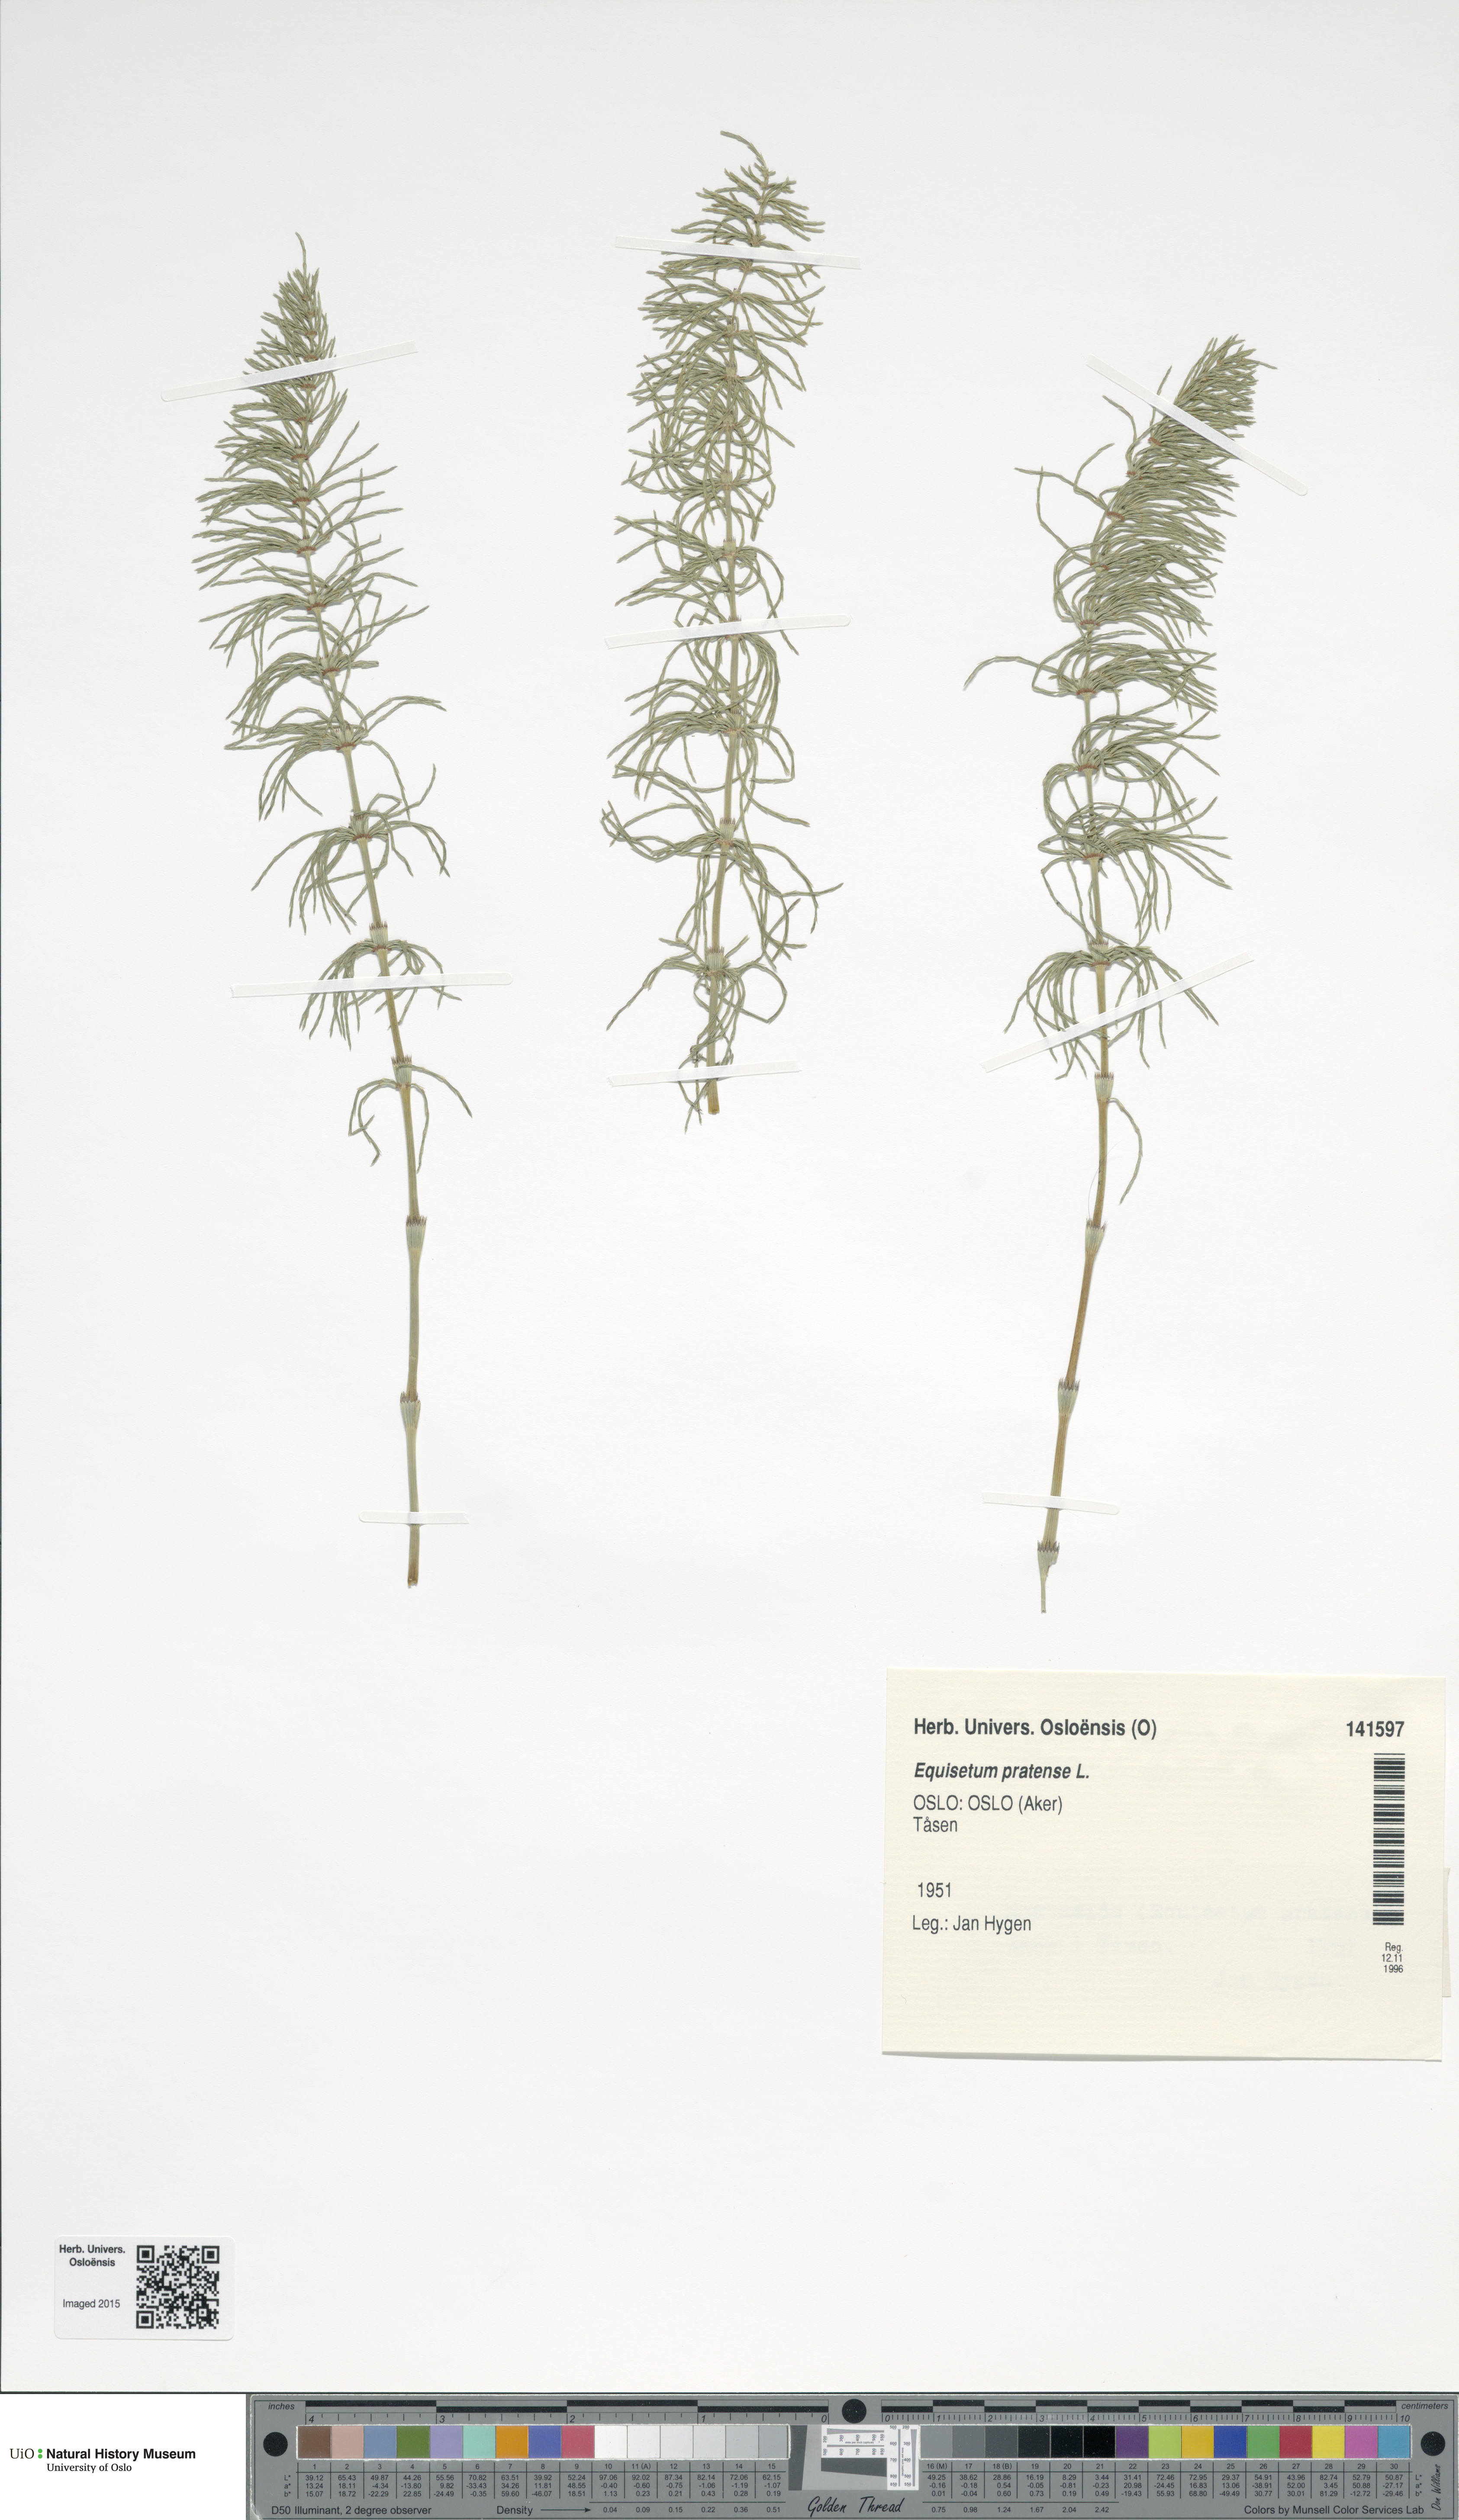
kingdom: Plantae
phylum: Tracheophyta
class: Polypodiopsida
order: Equisetales
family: Equisetaceae
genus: Equisetum
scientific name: Equisetum pratense
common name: Meadow horsetail
